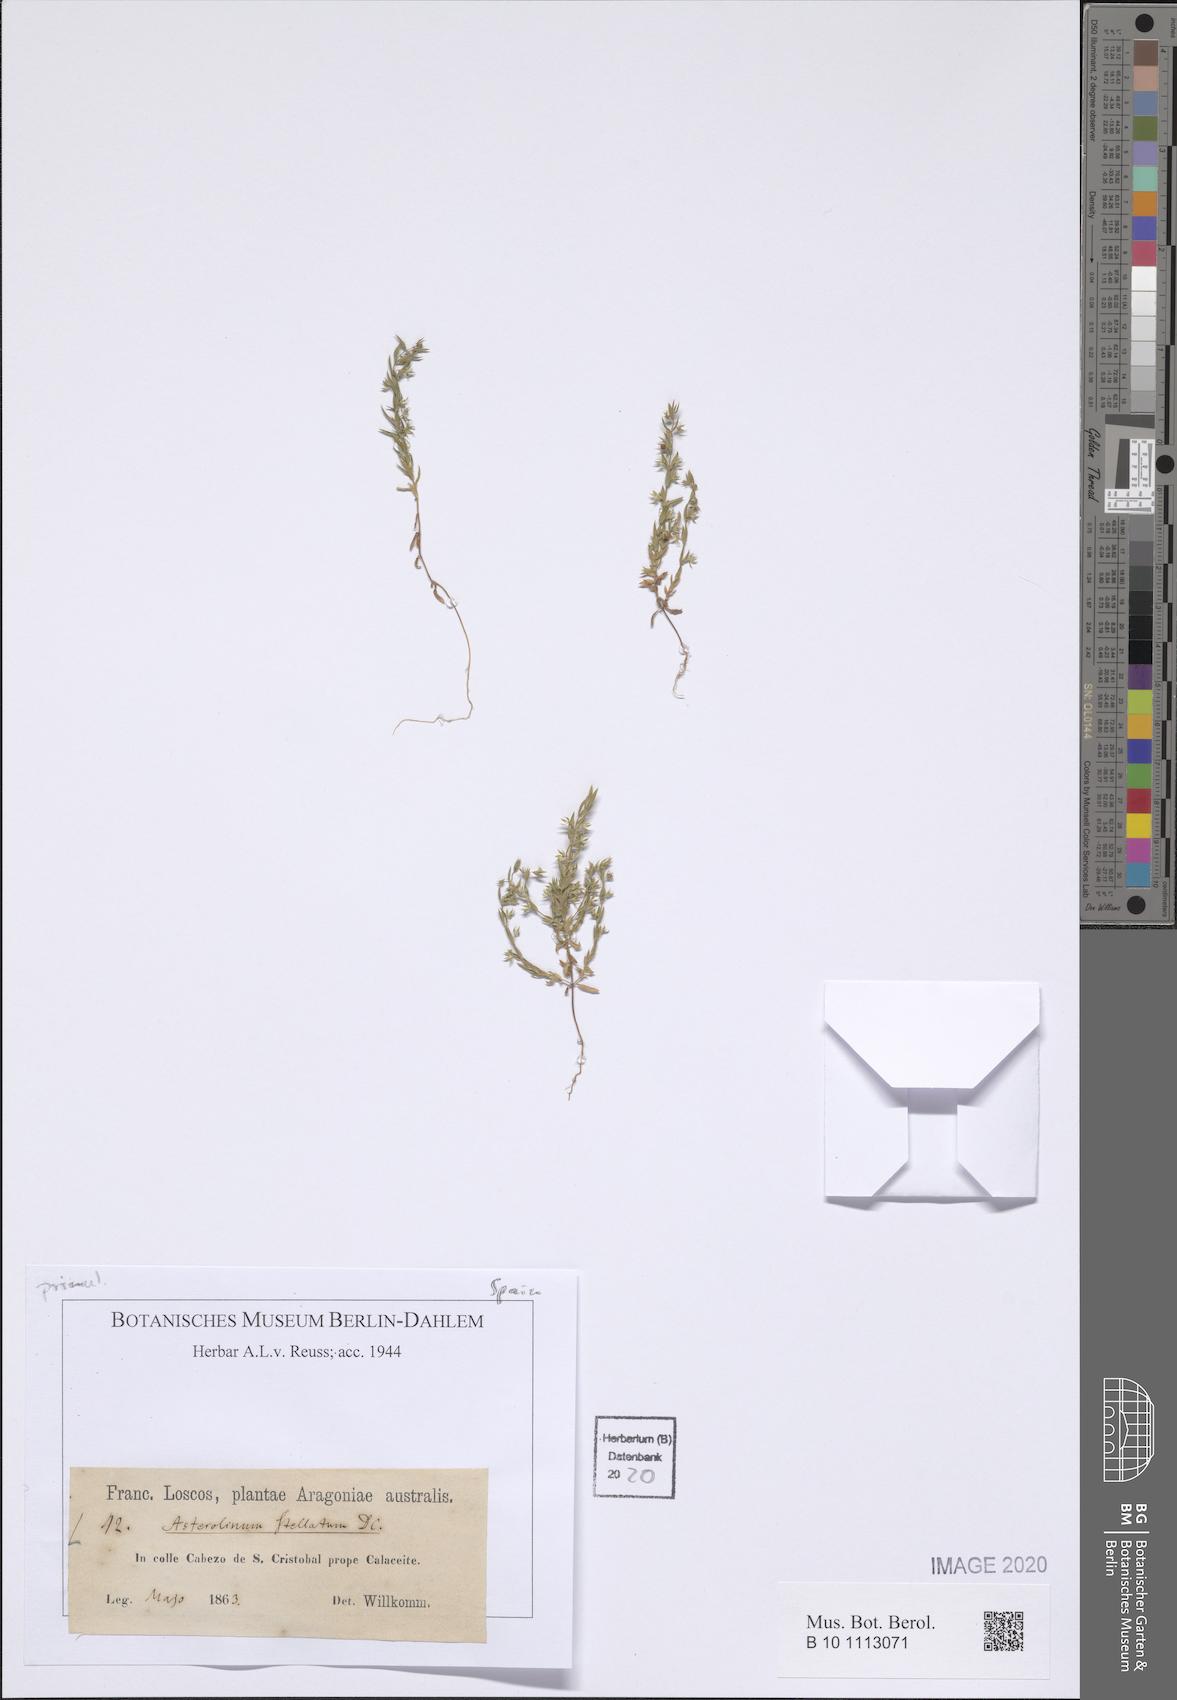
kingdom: Plantae
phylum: Tracheophyta
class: Magnoliopsida
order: Ericales
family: Primulaceae
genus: Lysimachia
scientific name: Lysimachia linum-stellatum
